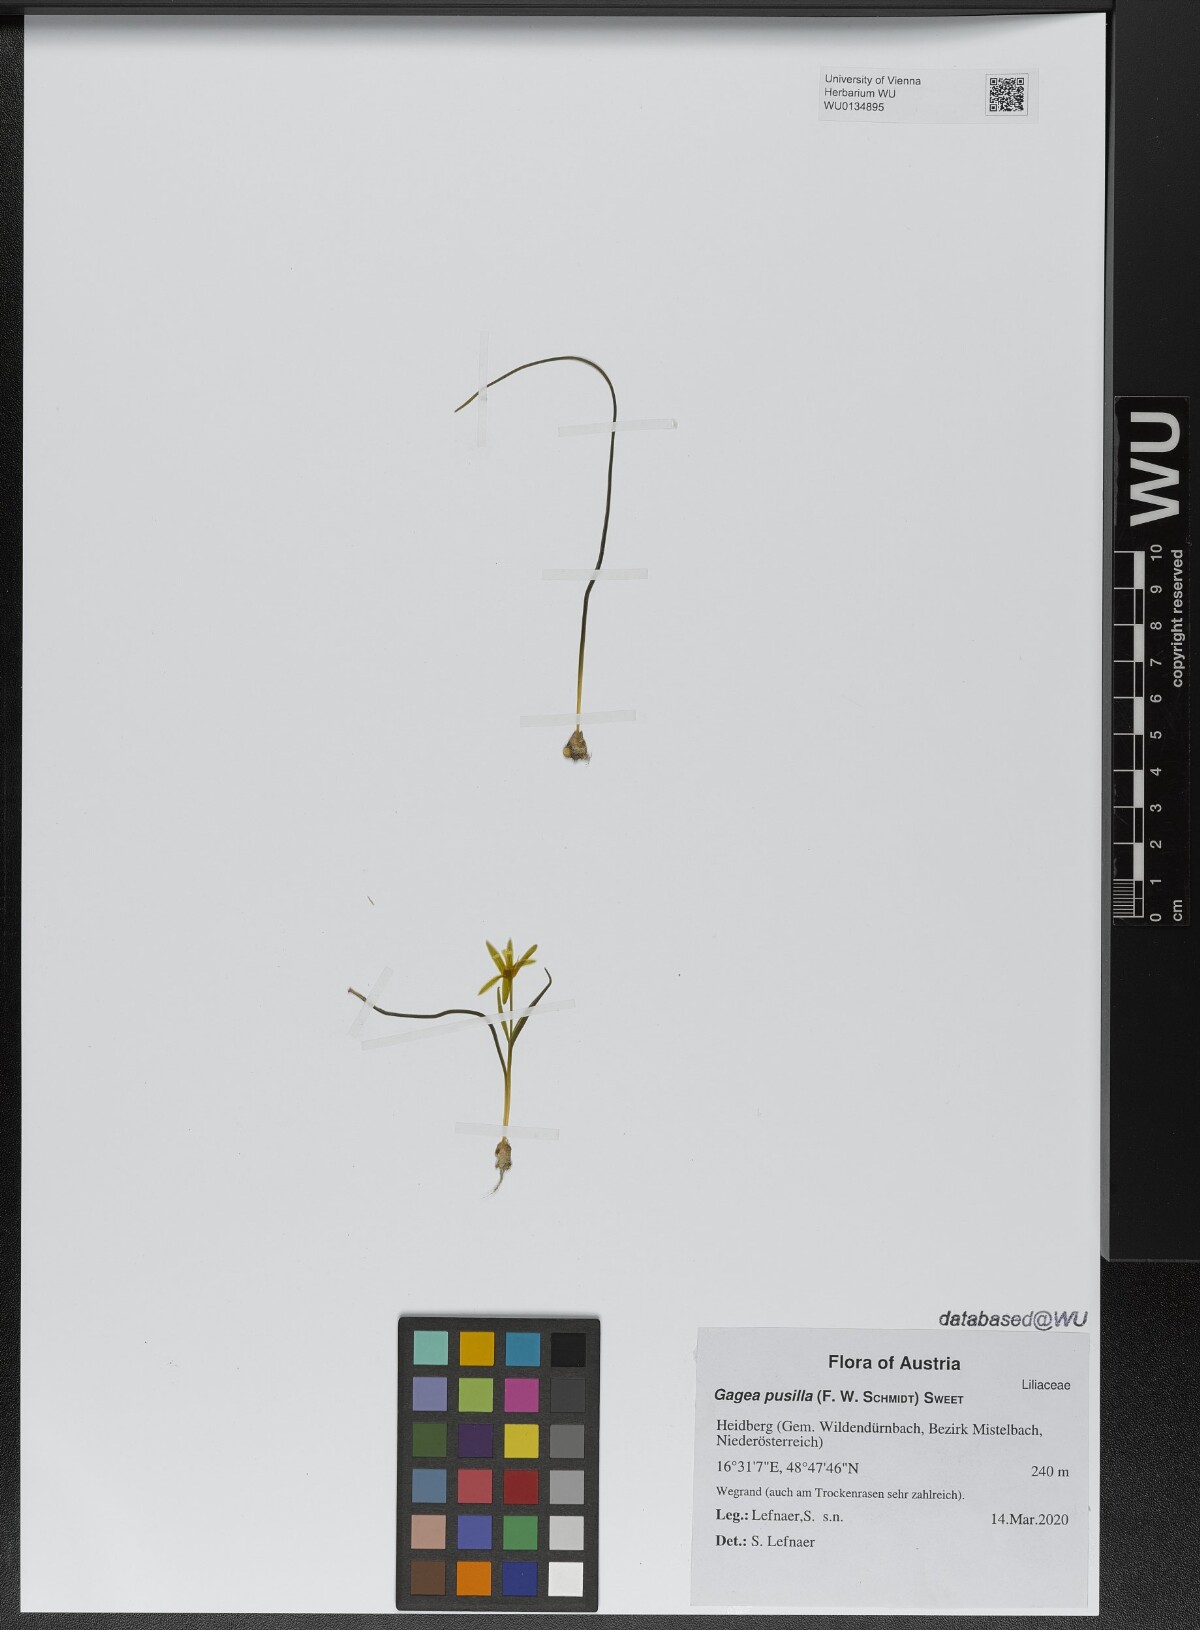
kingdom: Plantae
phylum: Tracheophyta
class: Liliopsida
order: Liliales
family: Liliaceae
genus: Gagea
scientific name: Gagea pusilla
